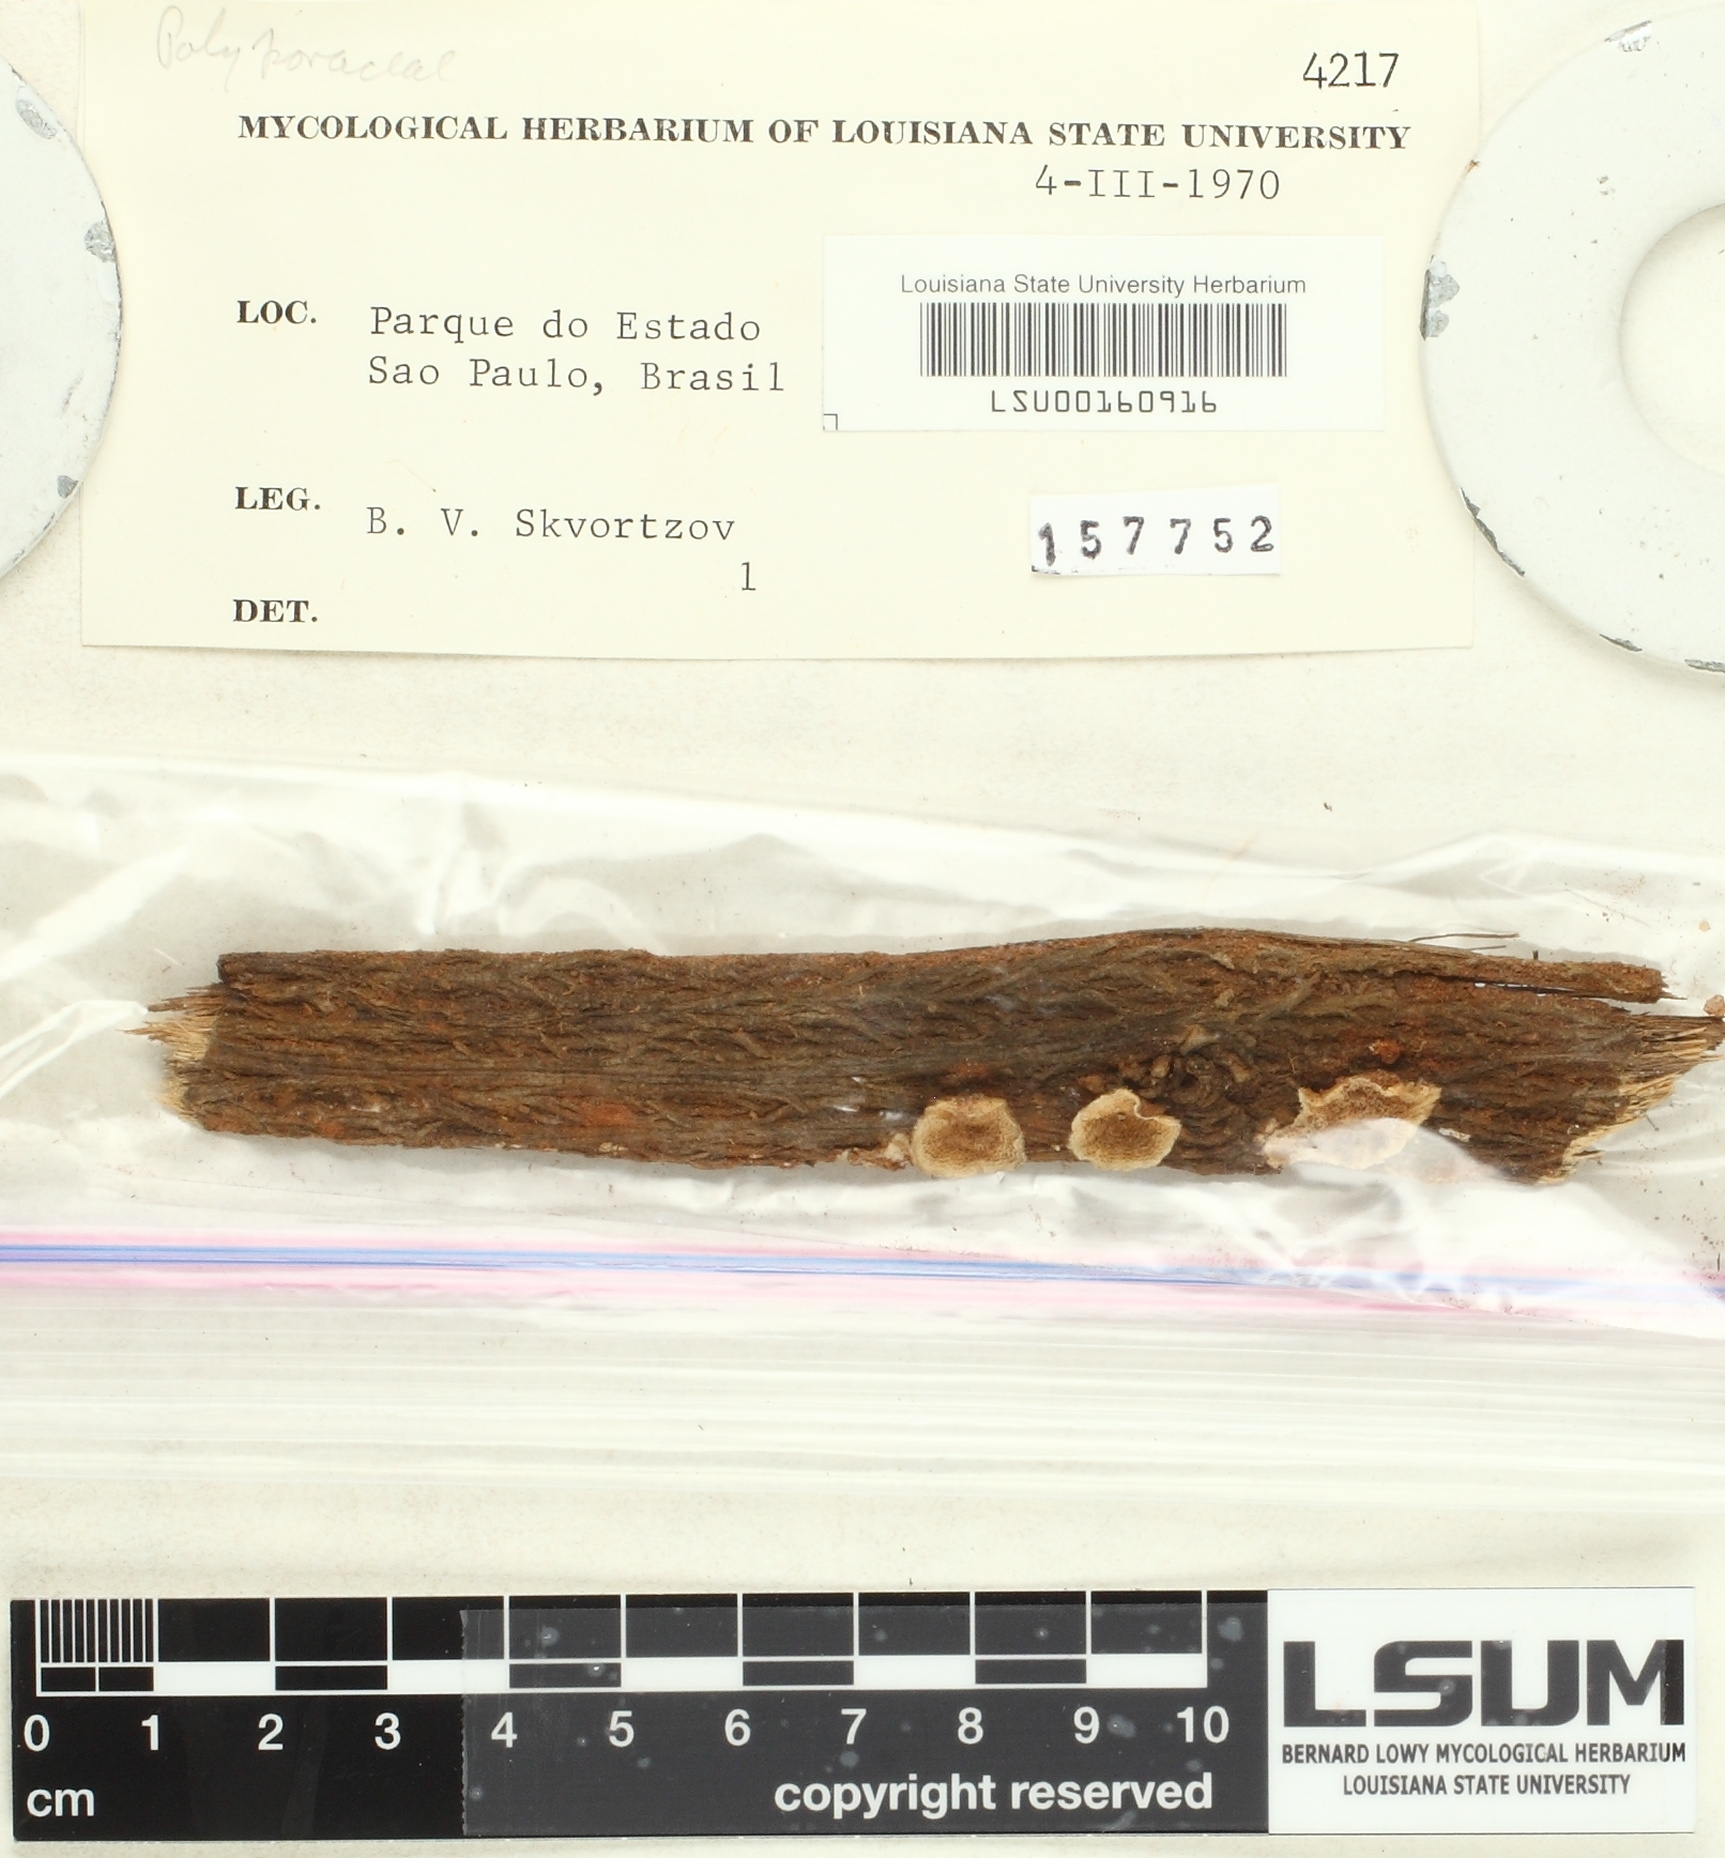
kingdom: Fungi
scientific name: Fungi
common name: Fungi
